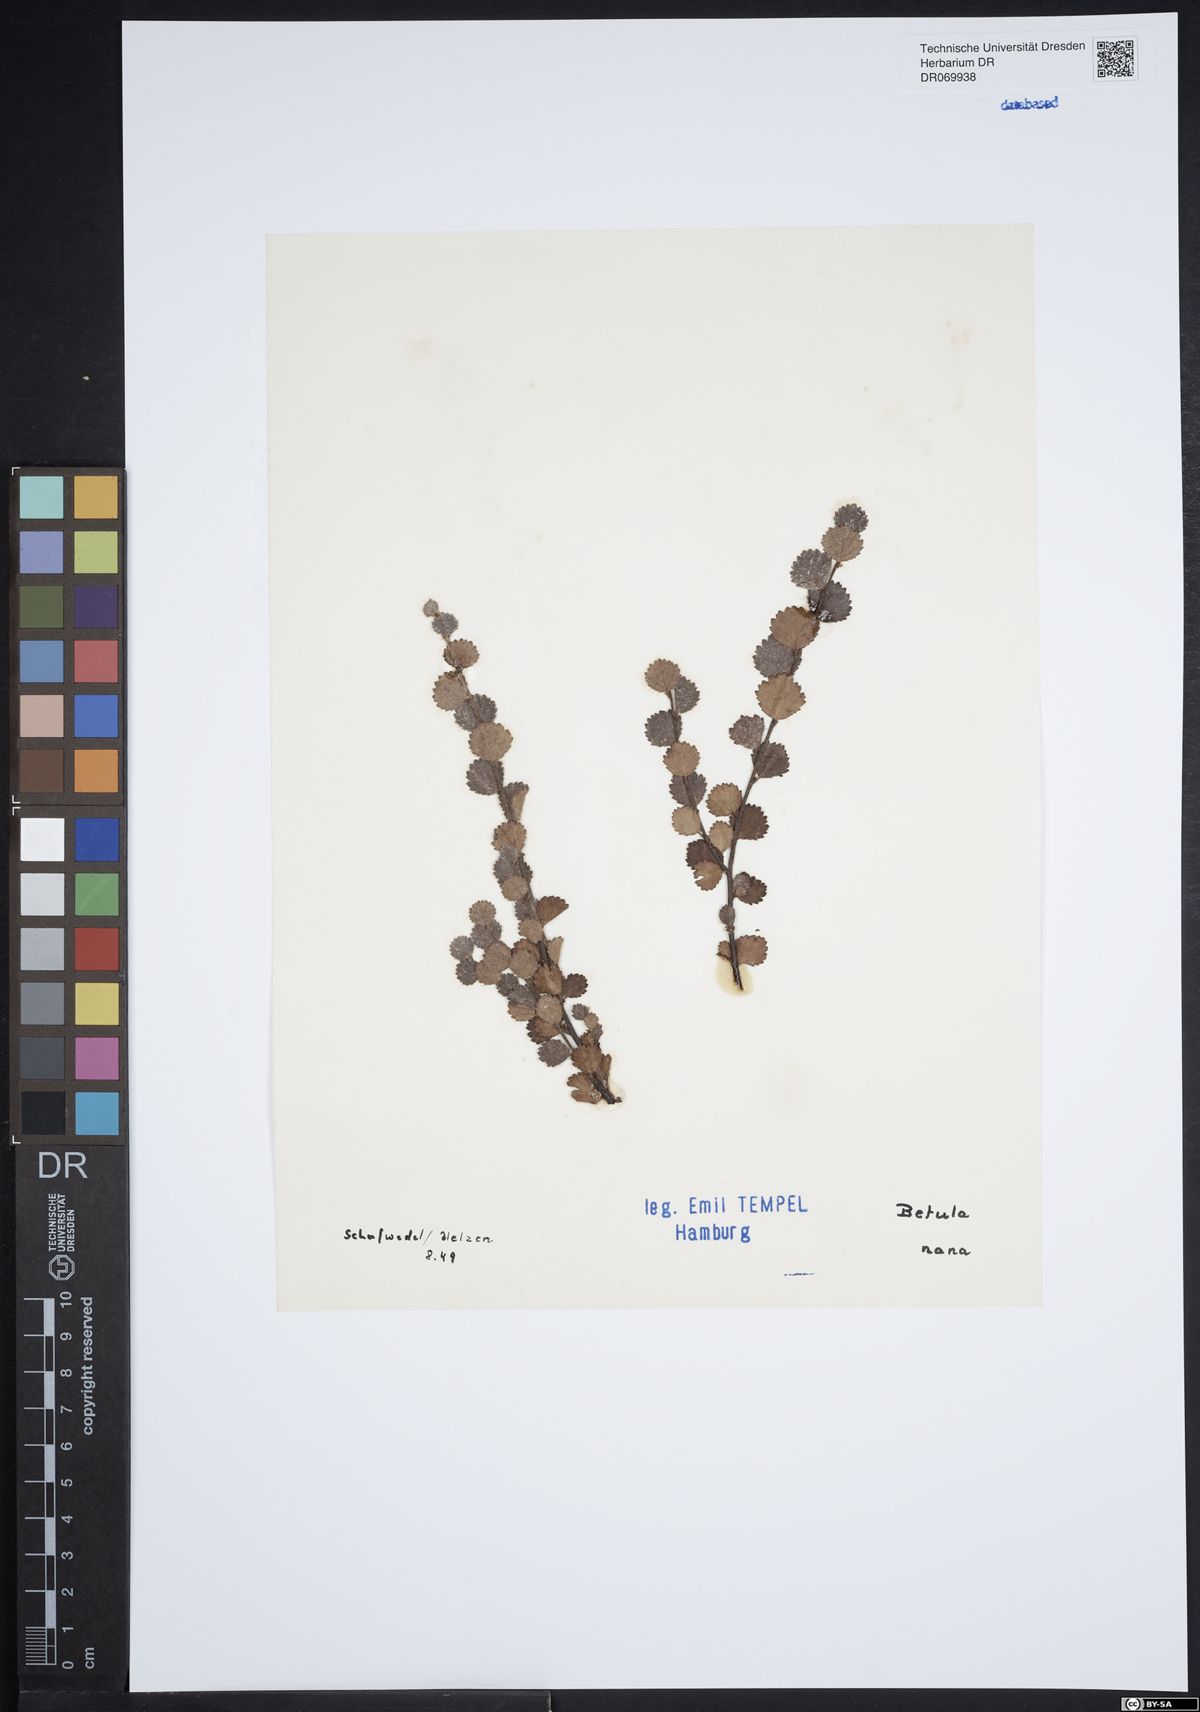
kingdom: Plantae
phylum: Tracheophyta
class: Magnoliopsida
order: Fagales
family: Betulaceae
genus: Betula
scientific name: Betula nana
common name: Arctic dwarf birch
